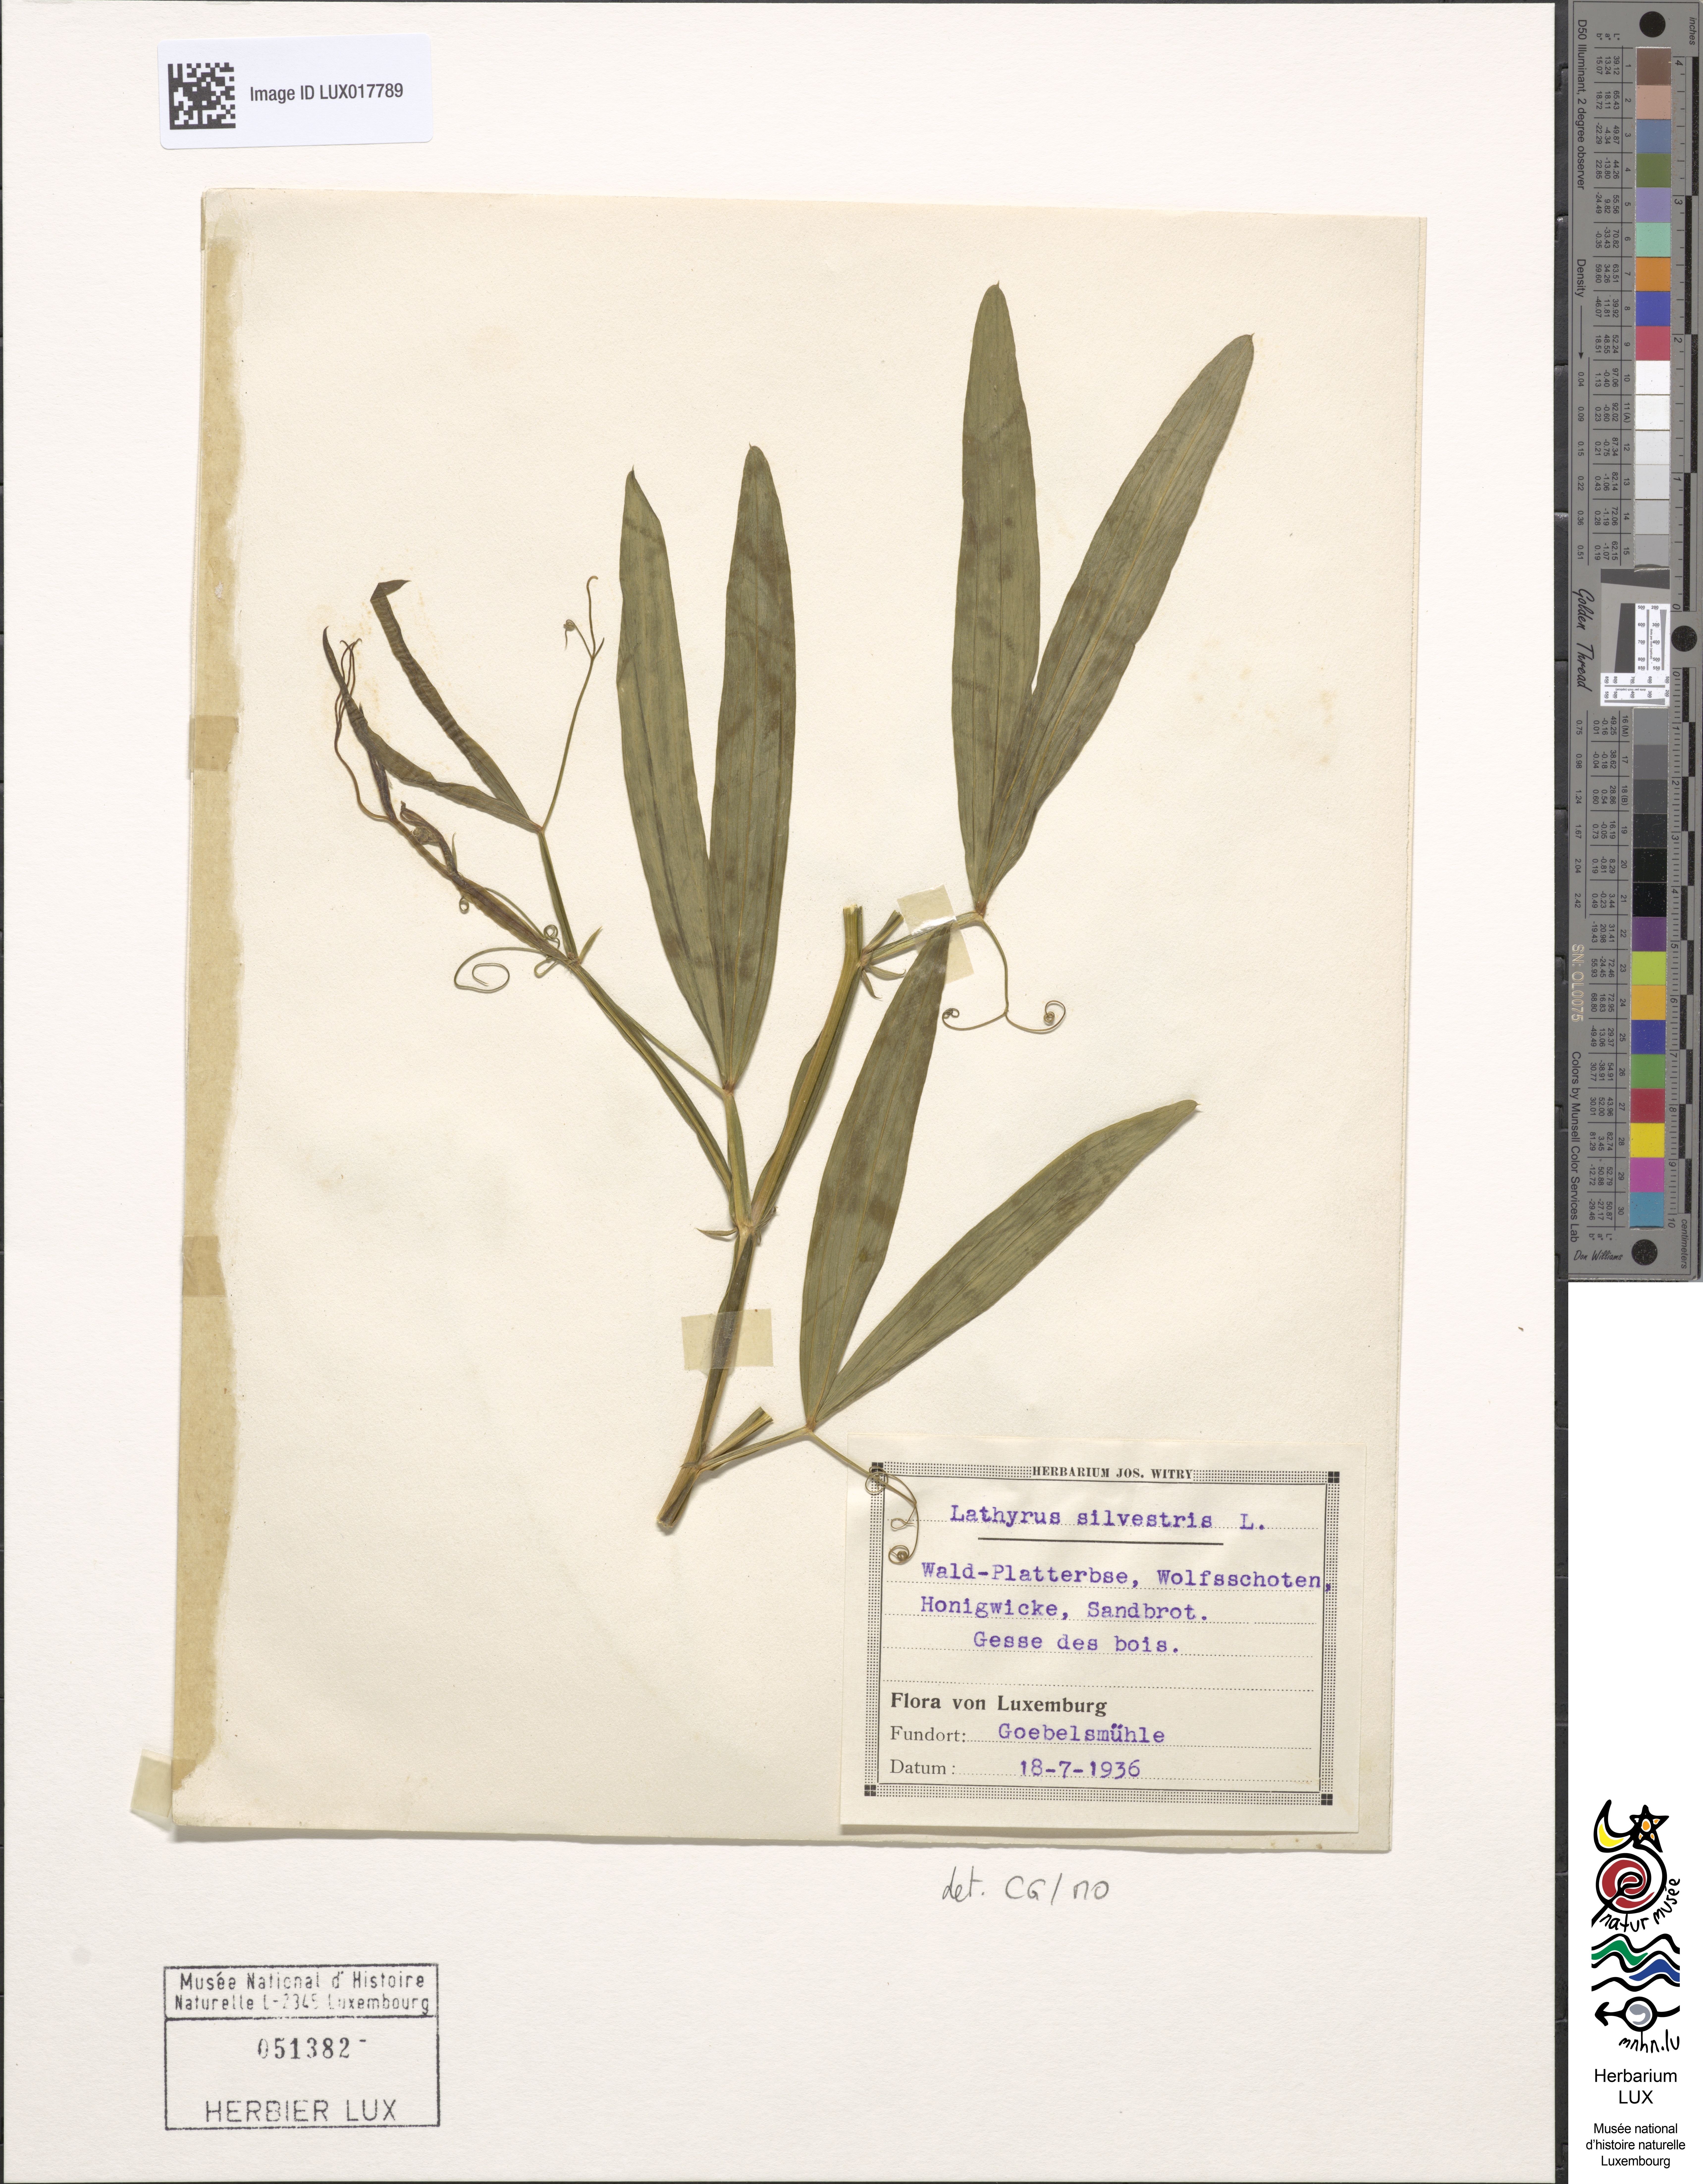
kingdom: Plantae
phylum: Tracheophyta
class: Magnoliopsida
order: Fabales
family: Fabaceae
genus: Lathyrus
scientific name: Lathyrus sylvestris
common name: Flat pea
